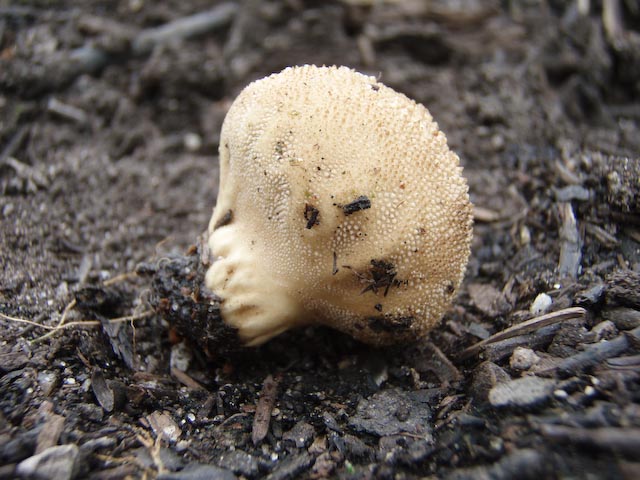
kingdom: Fungi
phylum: Basidiomycota
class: Agaricomycetes
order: Agaricales
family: Lycoperdaceae
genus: Lycoperdon
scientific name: Lycoperdon perlatum
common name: krystal-støvbold
